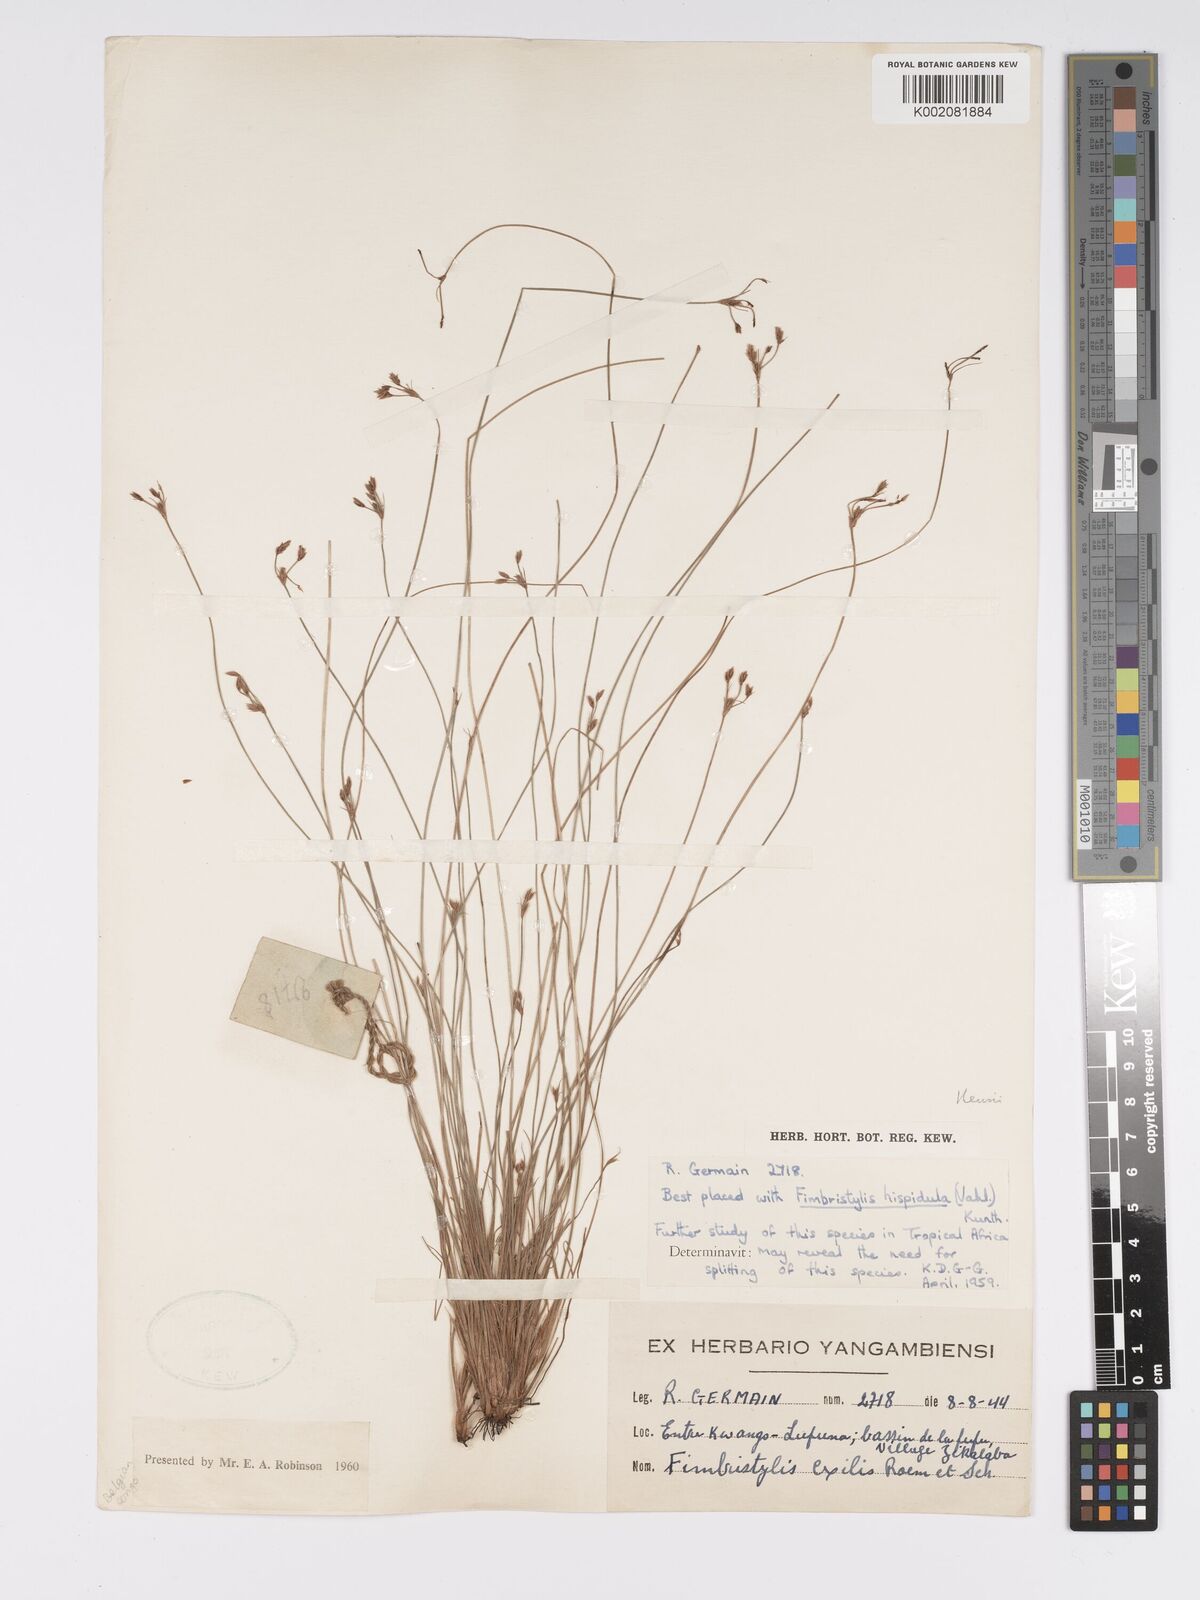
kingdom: Plantae
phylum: Tracheophyta
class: Liliopsida
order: Poales
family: Cyperaceae
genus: Bulbostylis
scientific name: Bulbostylis hispidula
